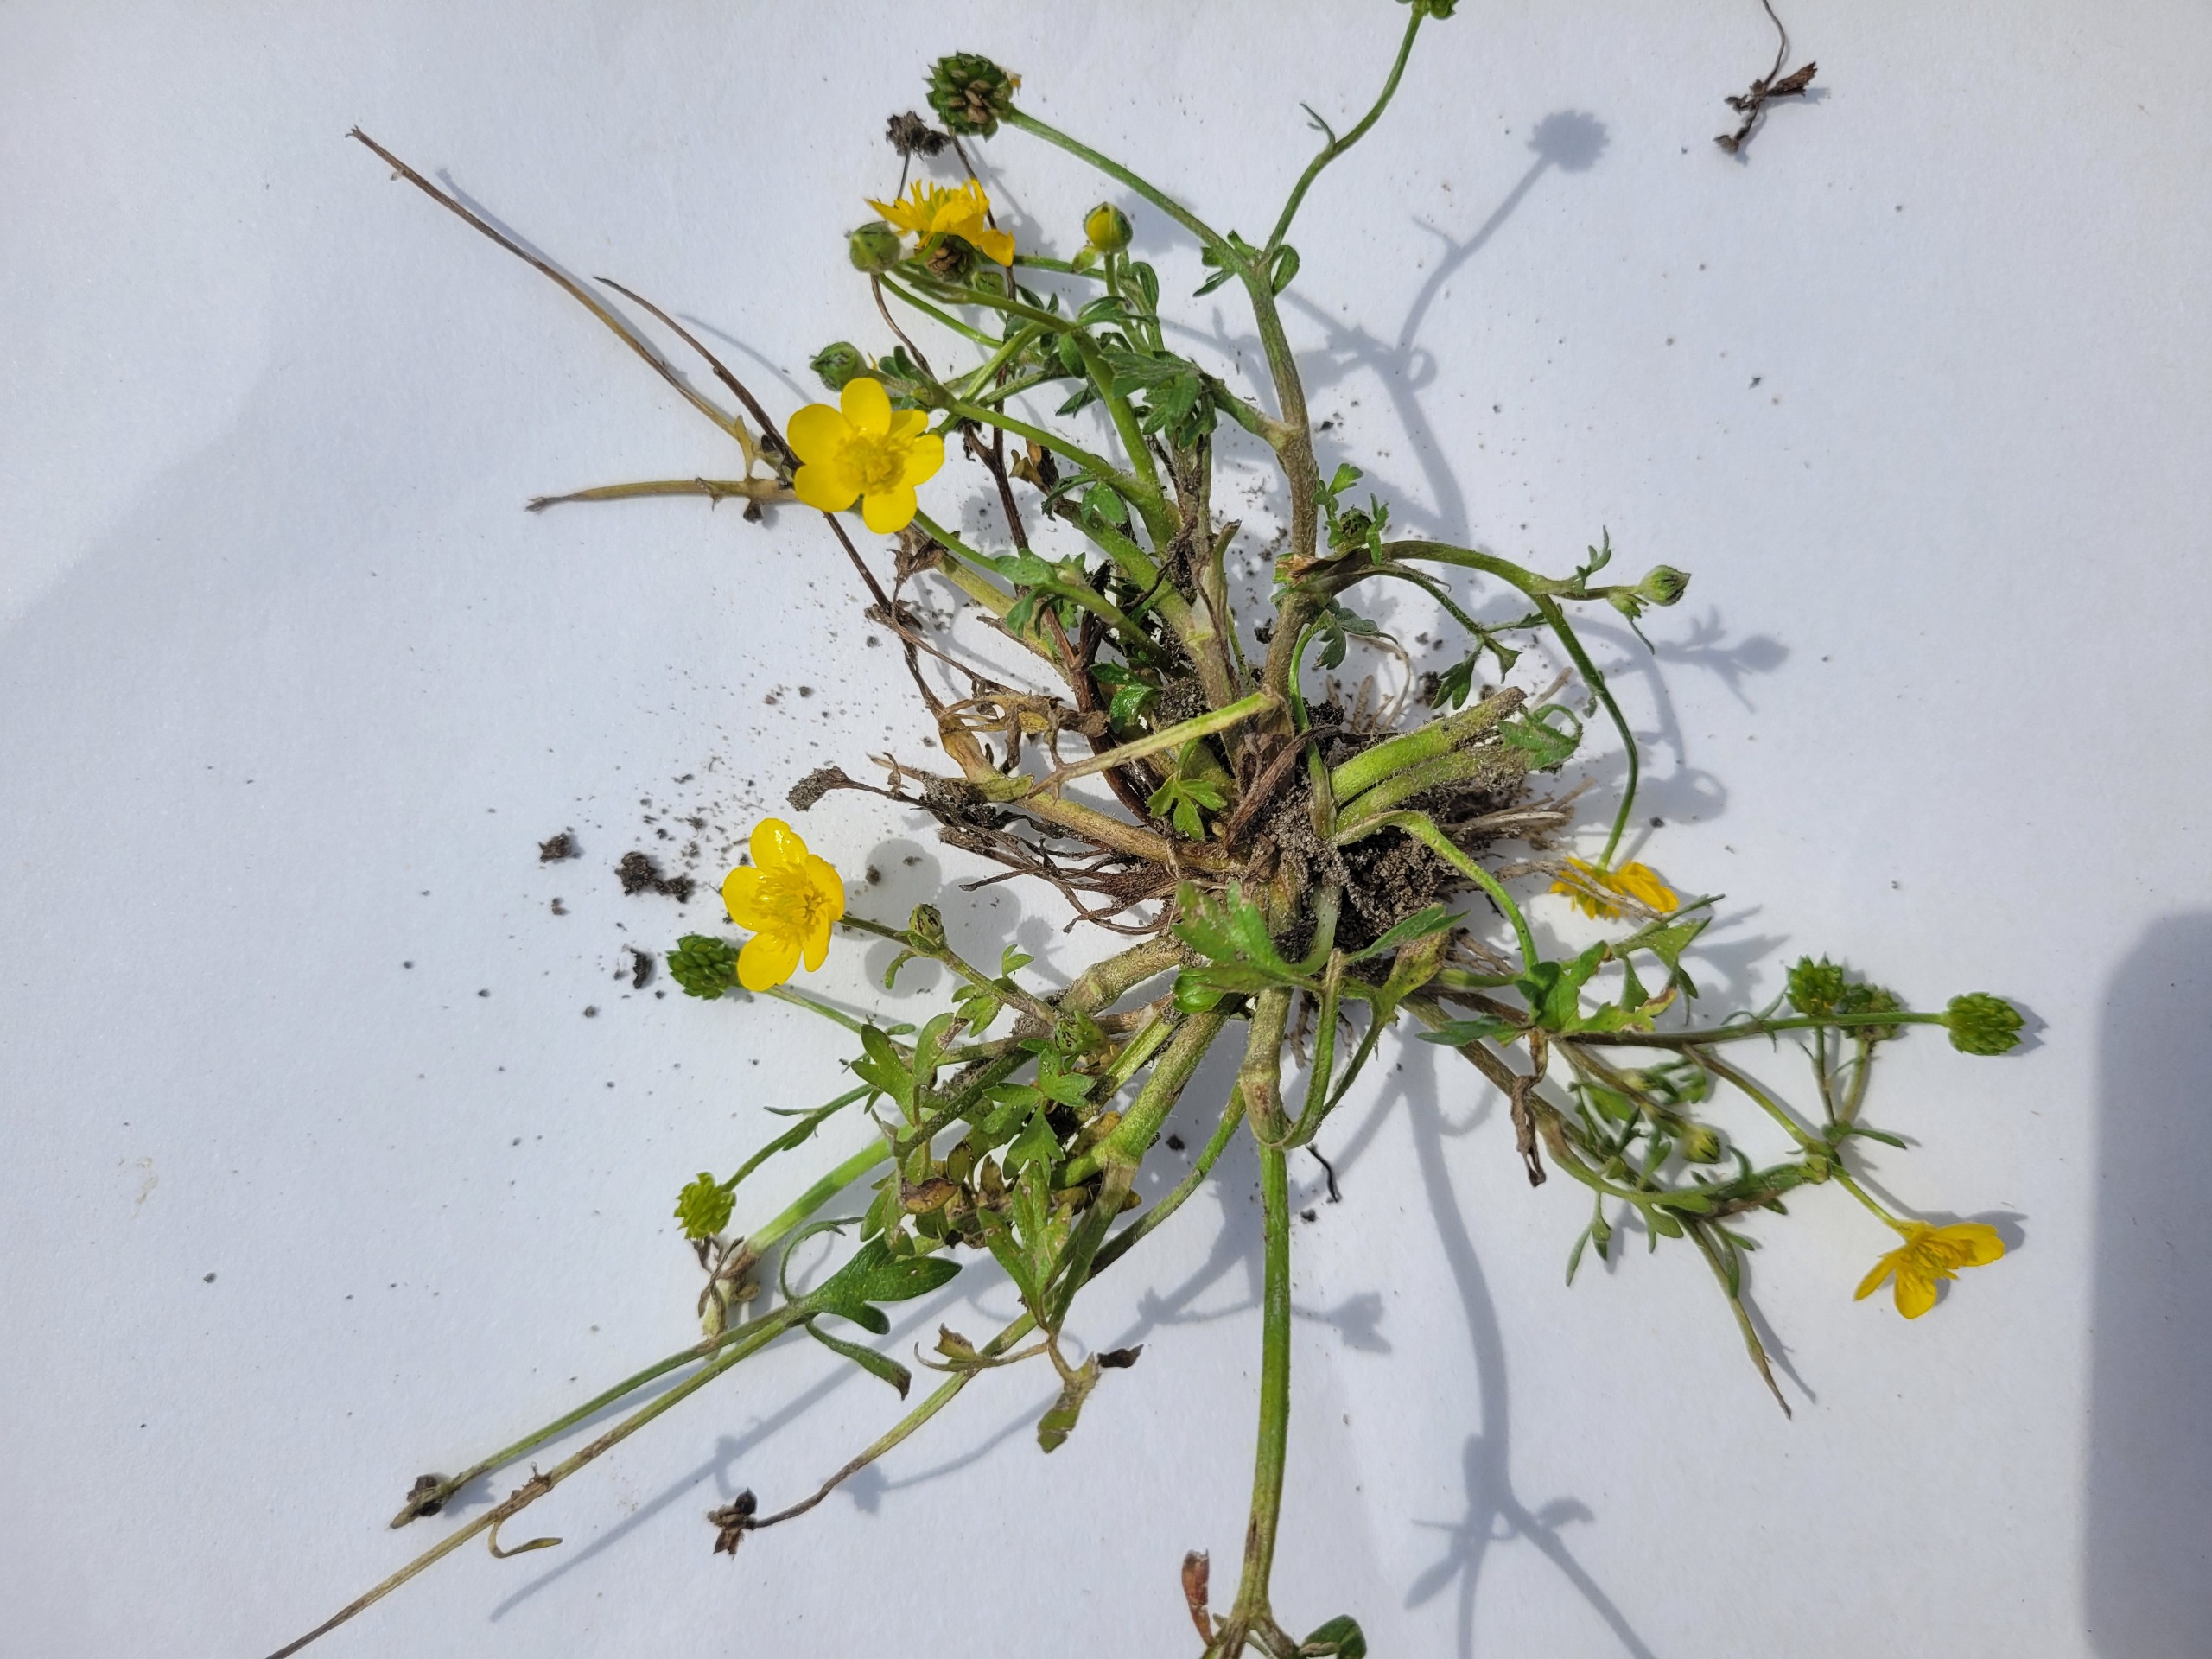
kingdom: Plantae
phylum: Tracheophyta
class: Magnoliopsida
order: Ranunculales
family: Ranunculaceae
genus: Ranunculus
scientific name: Ranunculus sardous
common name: Stivhåret ranunkel
